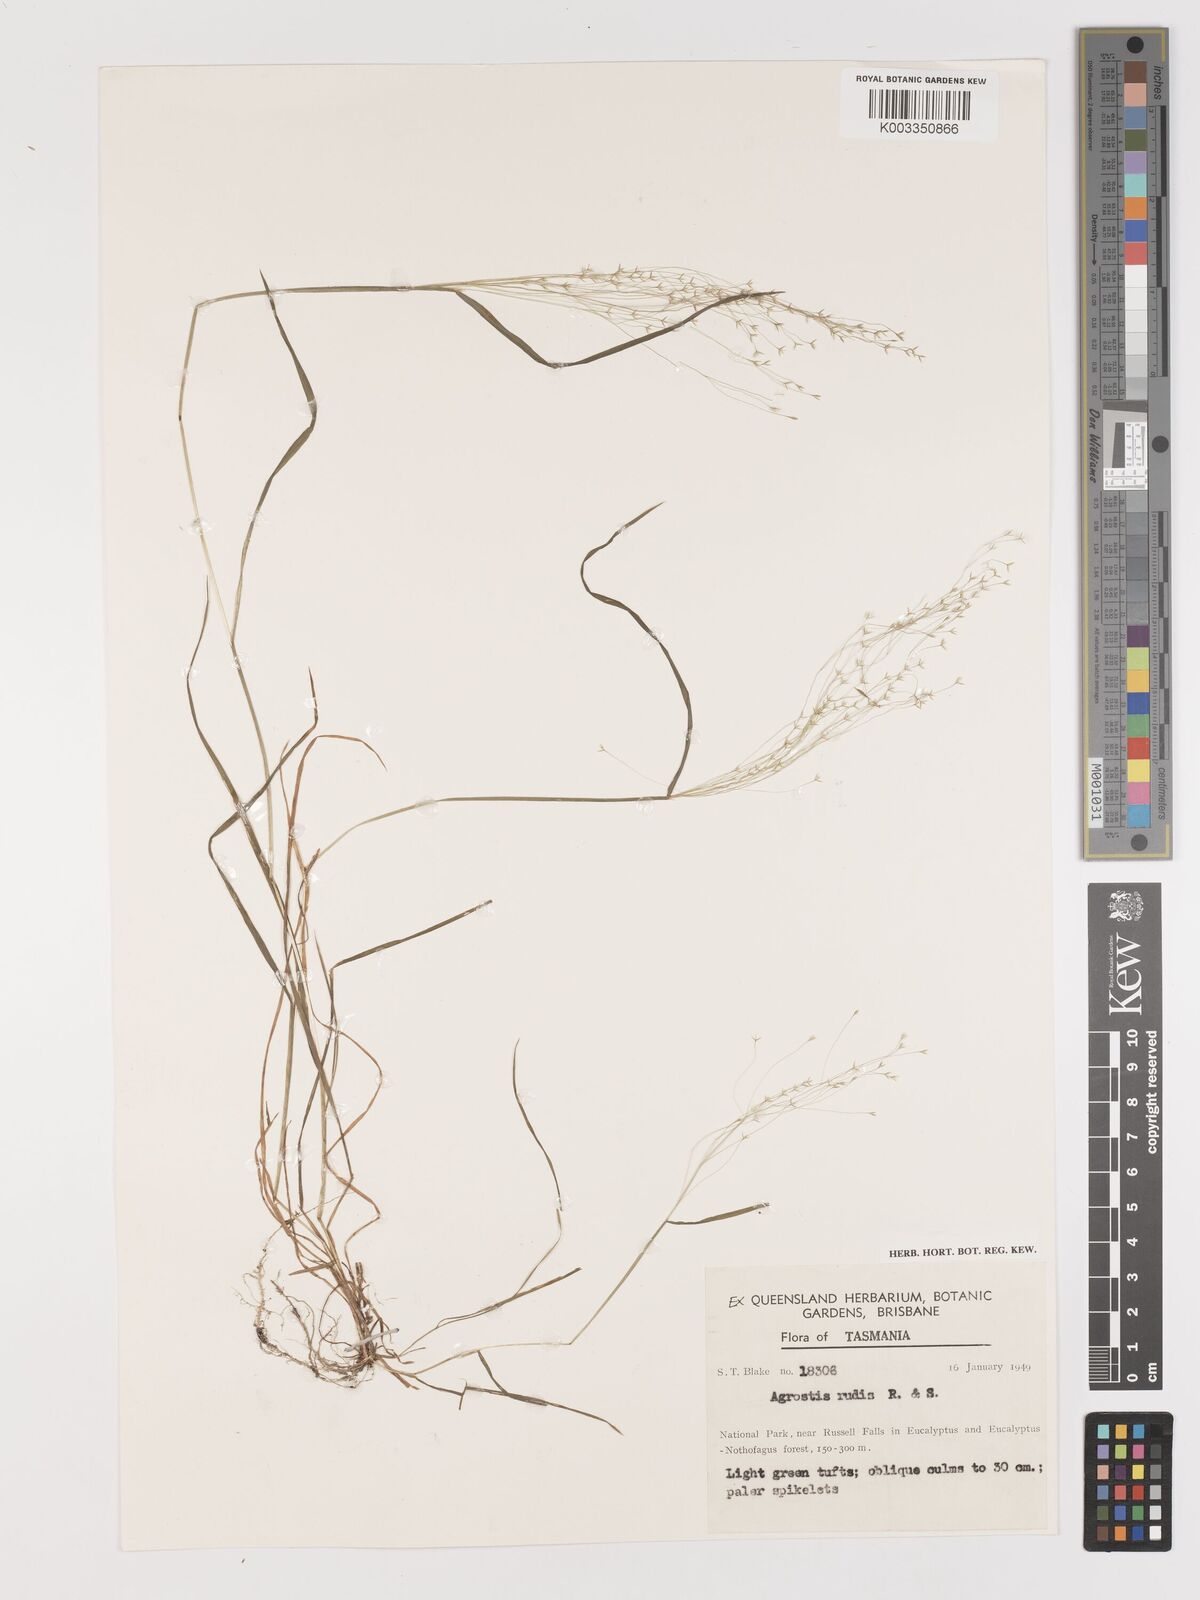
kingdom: Plantae
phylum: Tracheophyta
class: Liliopsida
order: Poales
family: Poaceae
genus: Lachnagrostis
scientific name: Lachnagrostis rudis
